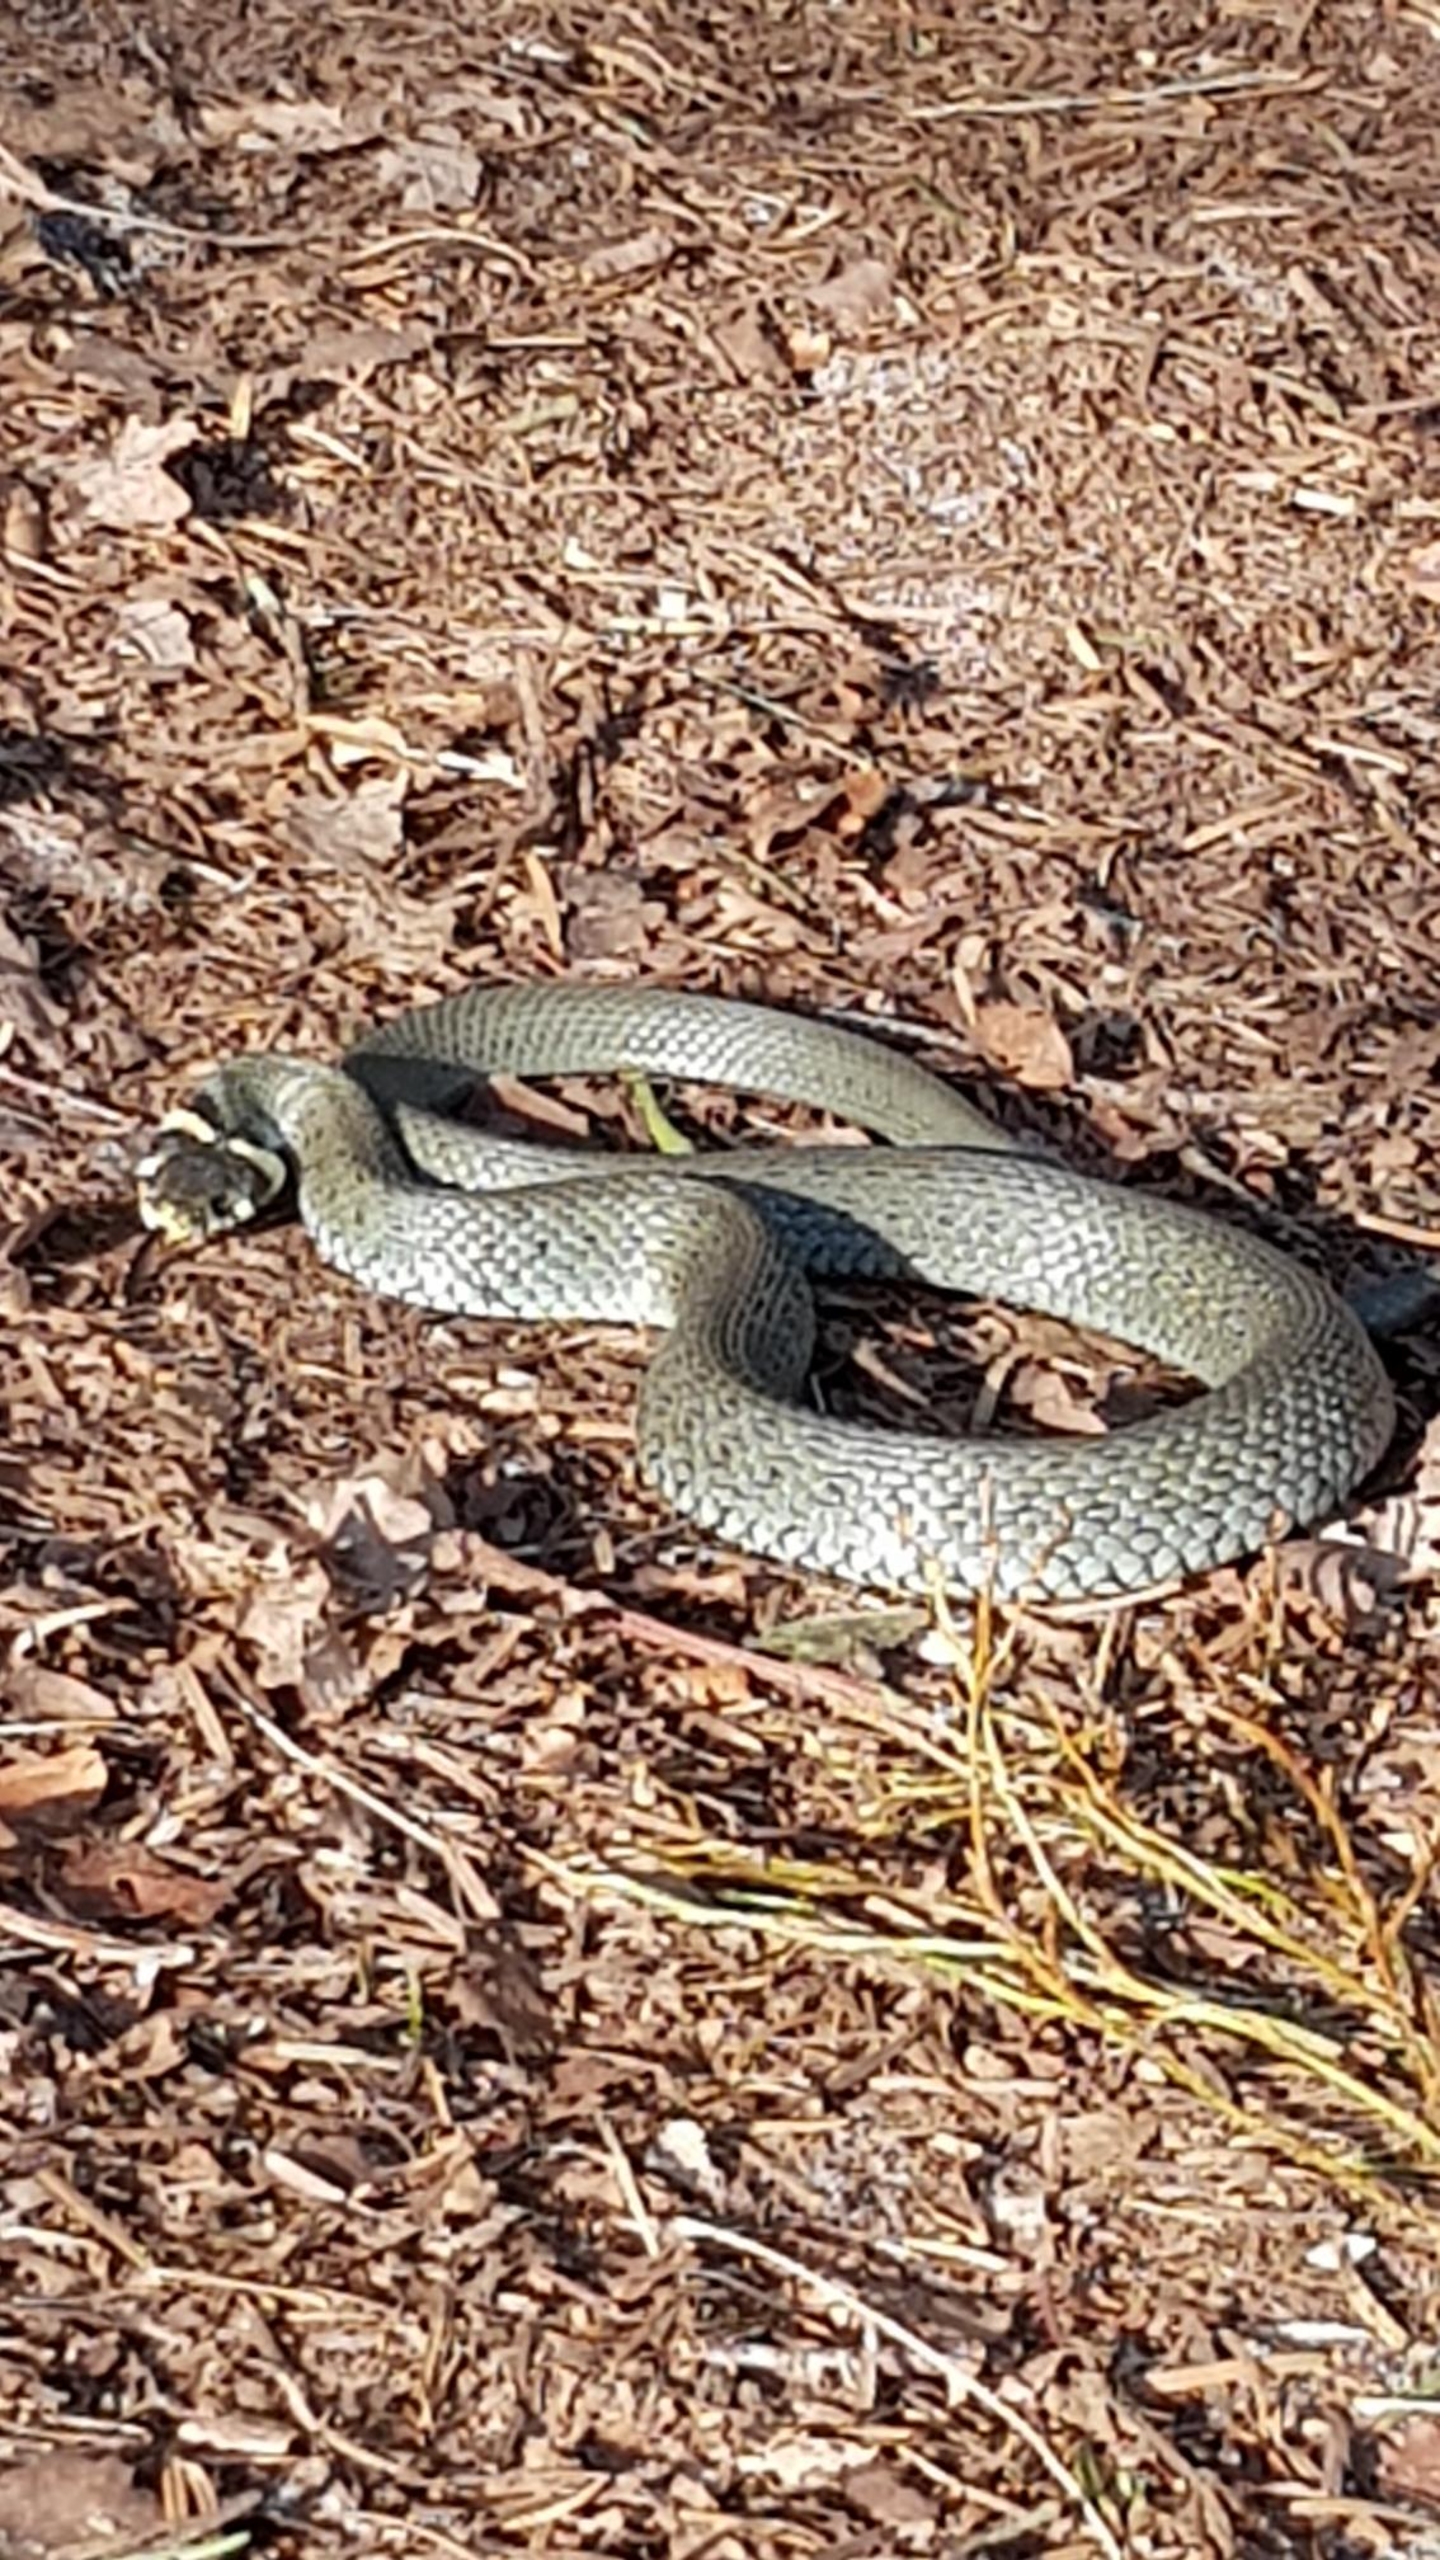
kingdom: Animalia
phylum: Chordata
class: Squamata
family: Colubridae
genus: Natrix
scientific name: Natrix natrix
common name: Snog
